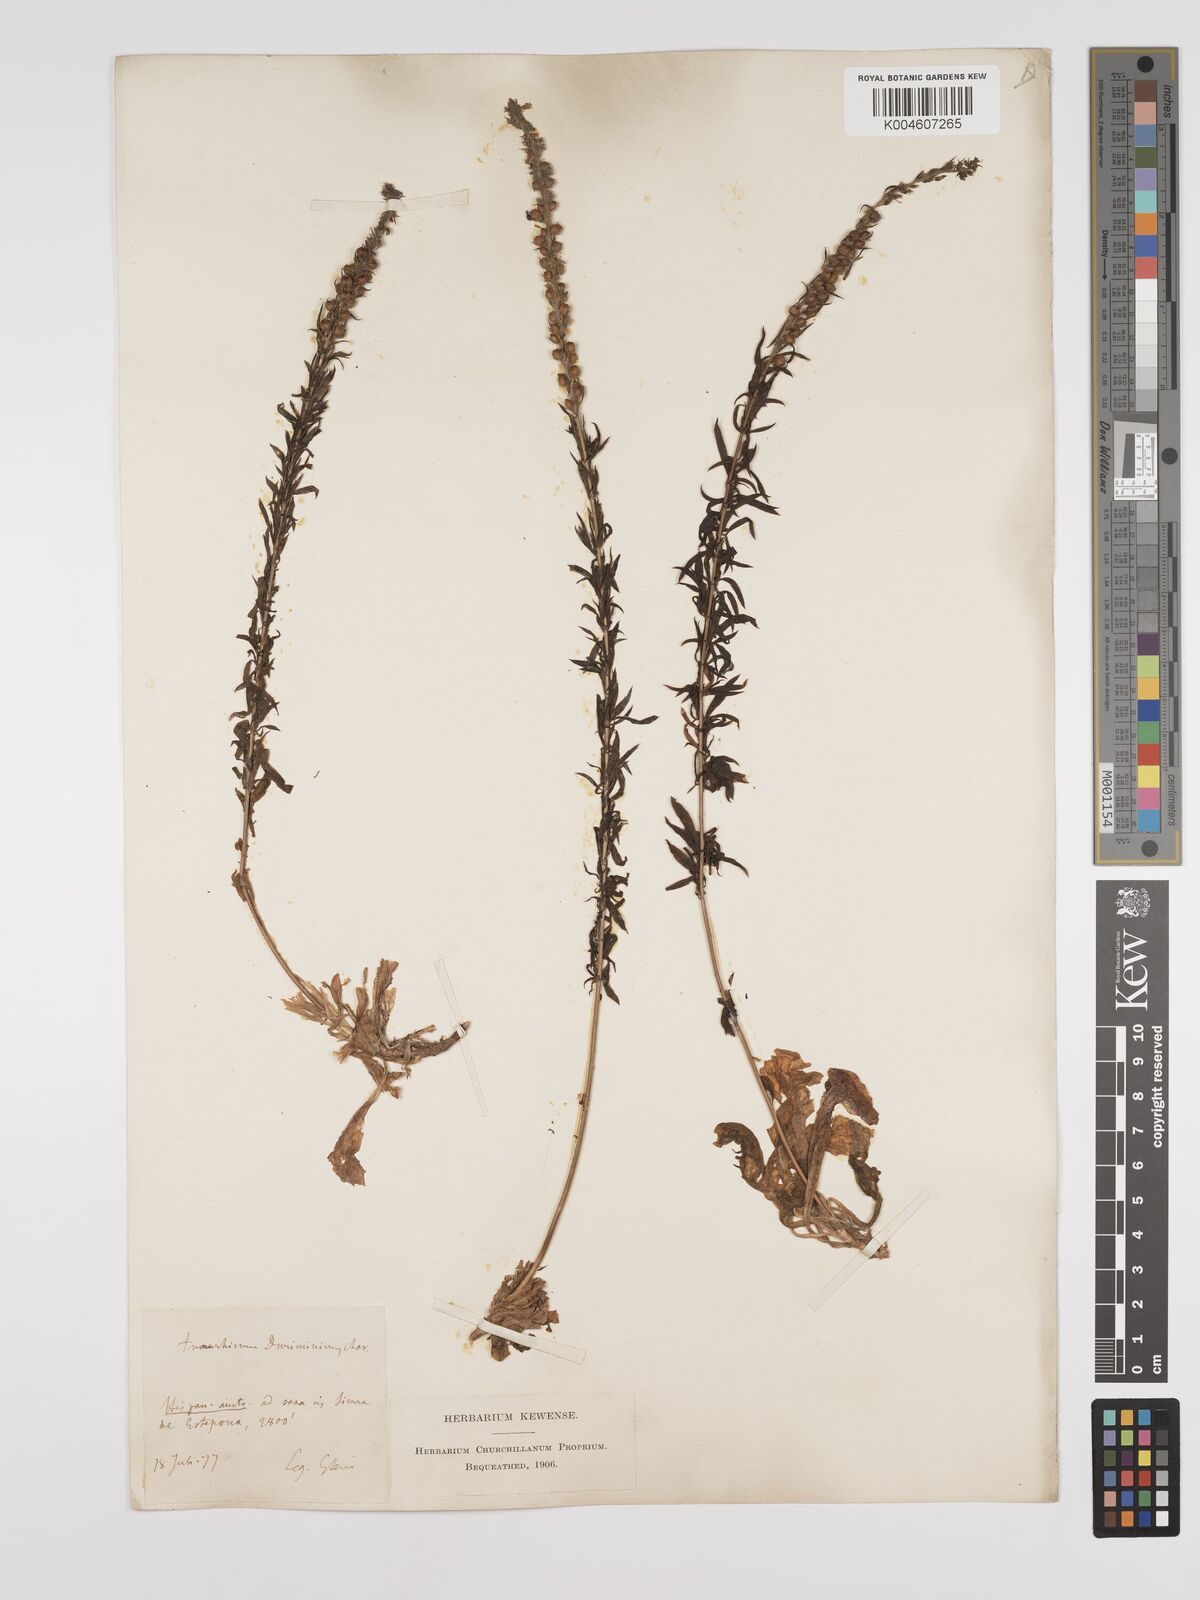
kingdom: Plantae
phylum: Tracheophyta
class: Magnoliopsida
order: Lamiales
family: Plantaginaceae
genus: Anarrhinum
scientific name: Anarrhinum duriminium
